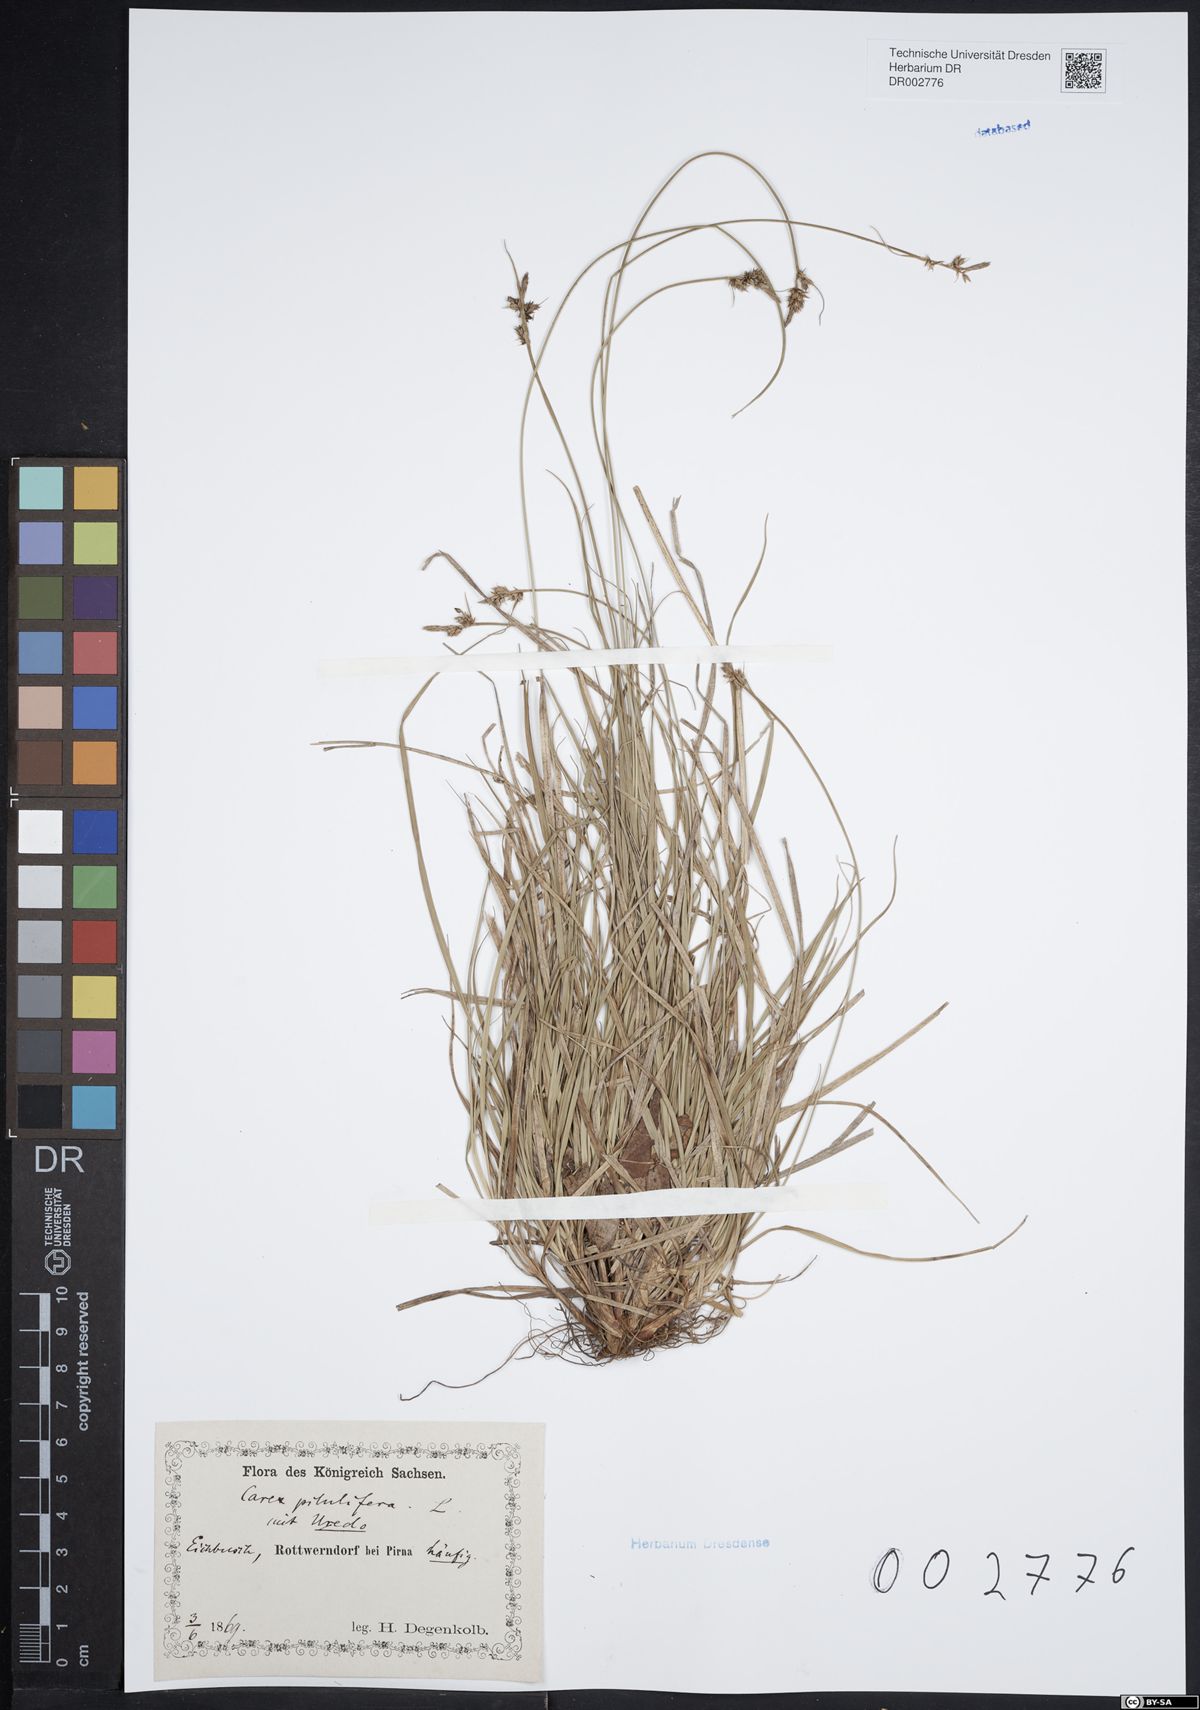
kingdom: Plantae
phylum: Tracheophyta
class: Liliopsida
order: Poales
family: Cyperaceae
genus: Carex
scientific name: Carex caryophyllea
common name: Spring sedge
